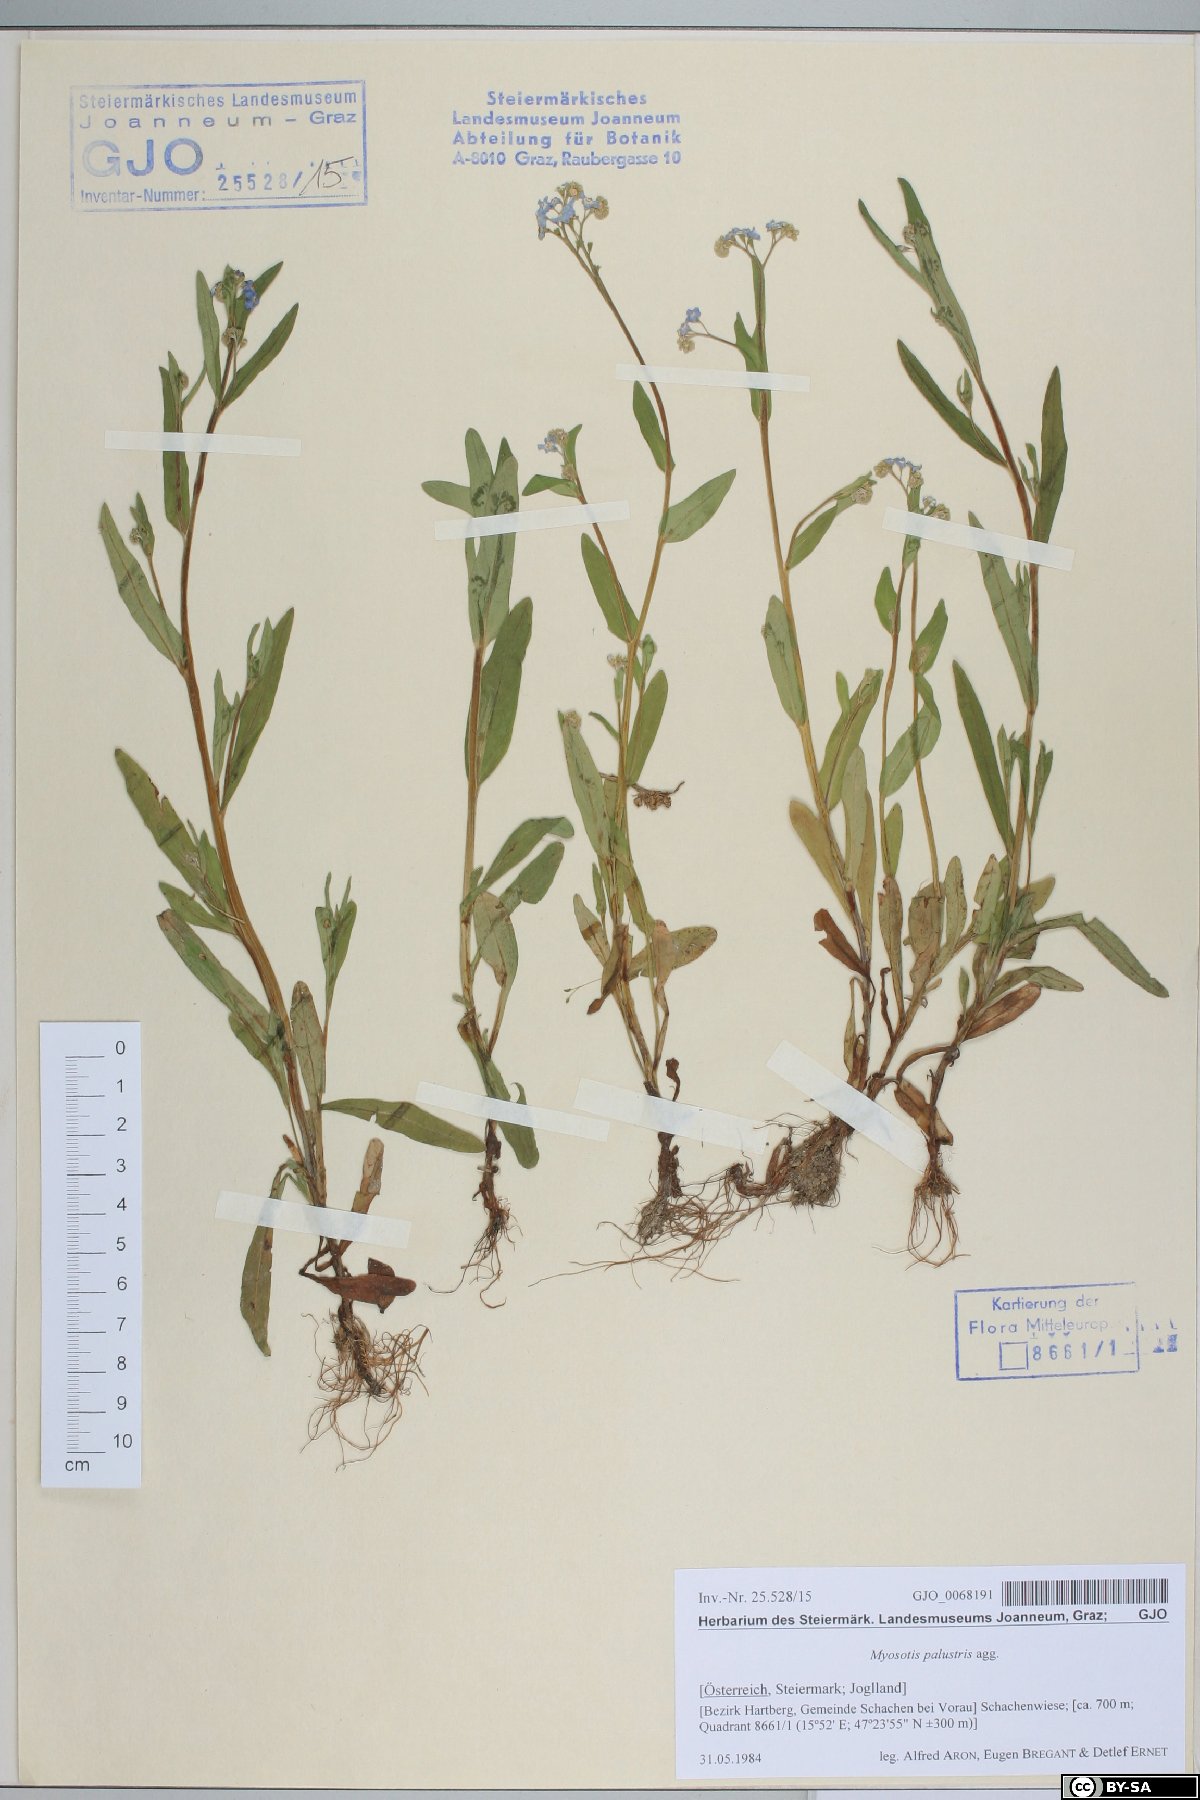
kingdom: Plantae
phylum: Tracheophyta
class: Magnoliopsida
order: Boraginales
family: Boraginaceae
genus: Myosotis
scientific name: Myosotis nemorosa
